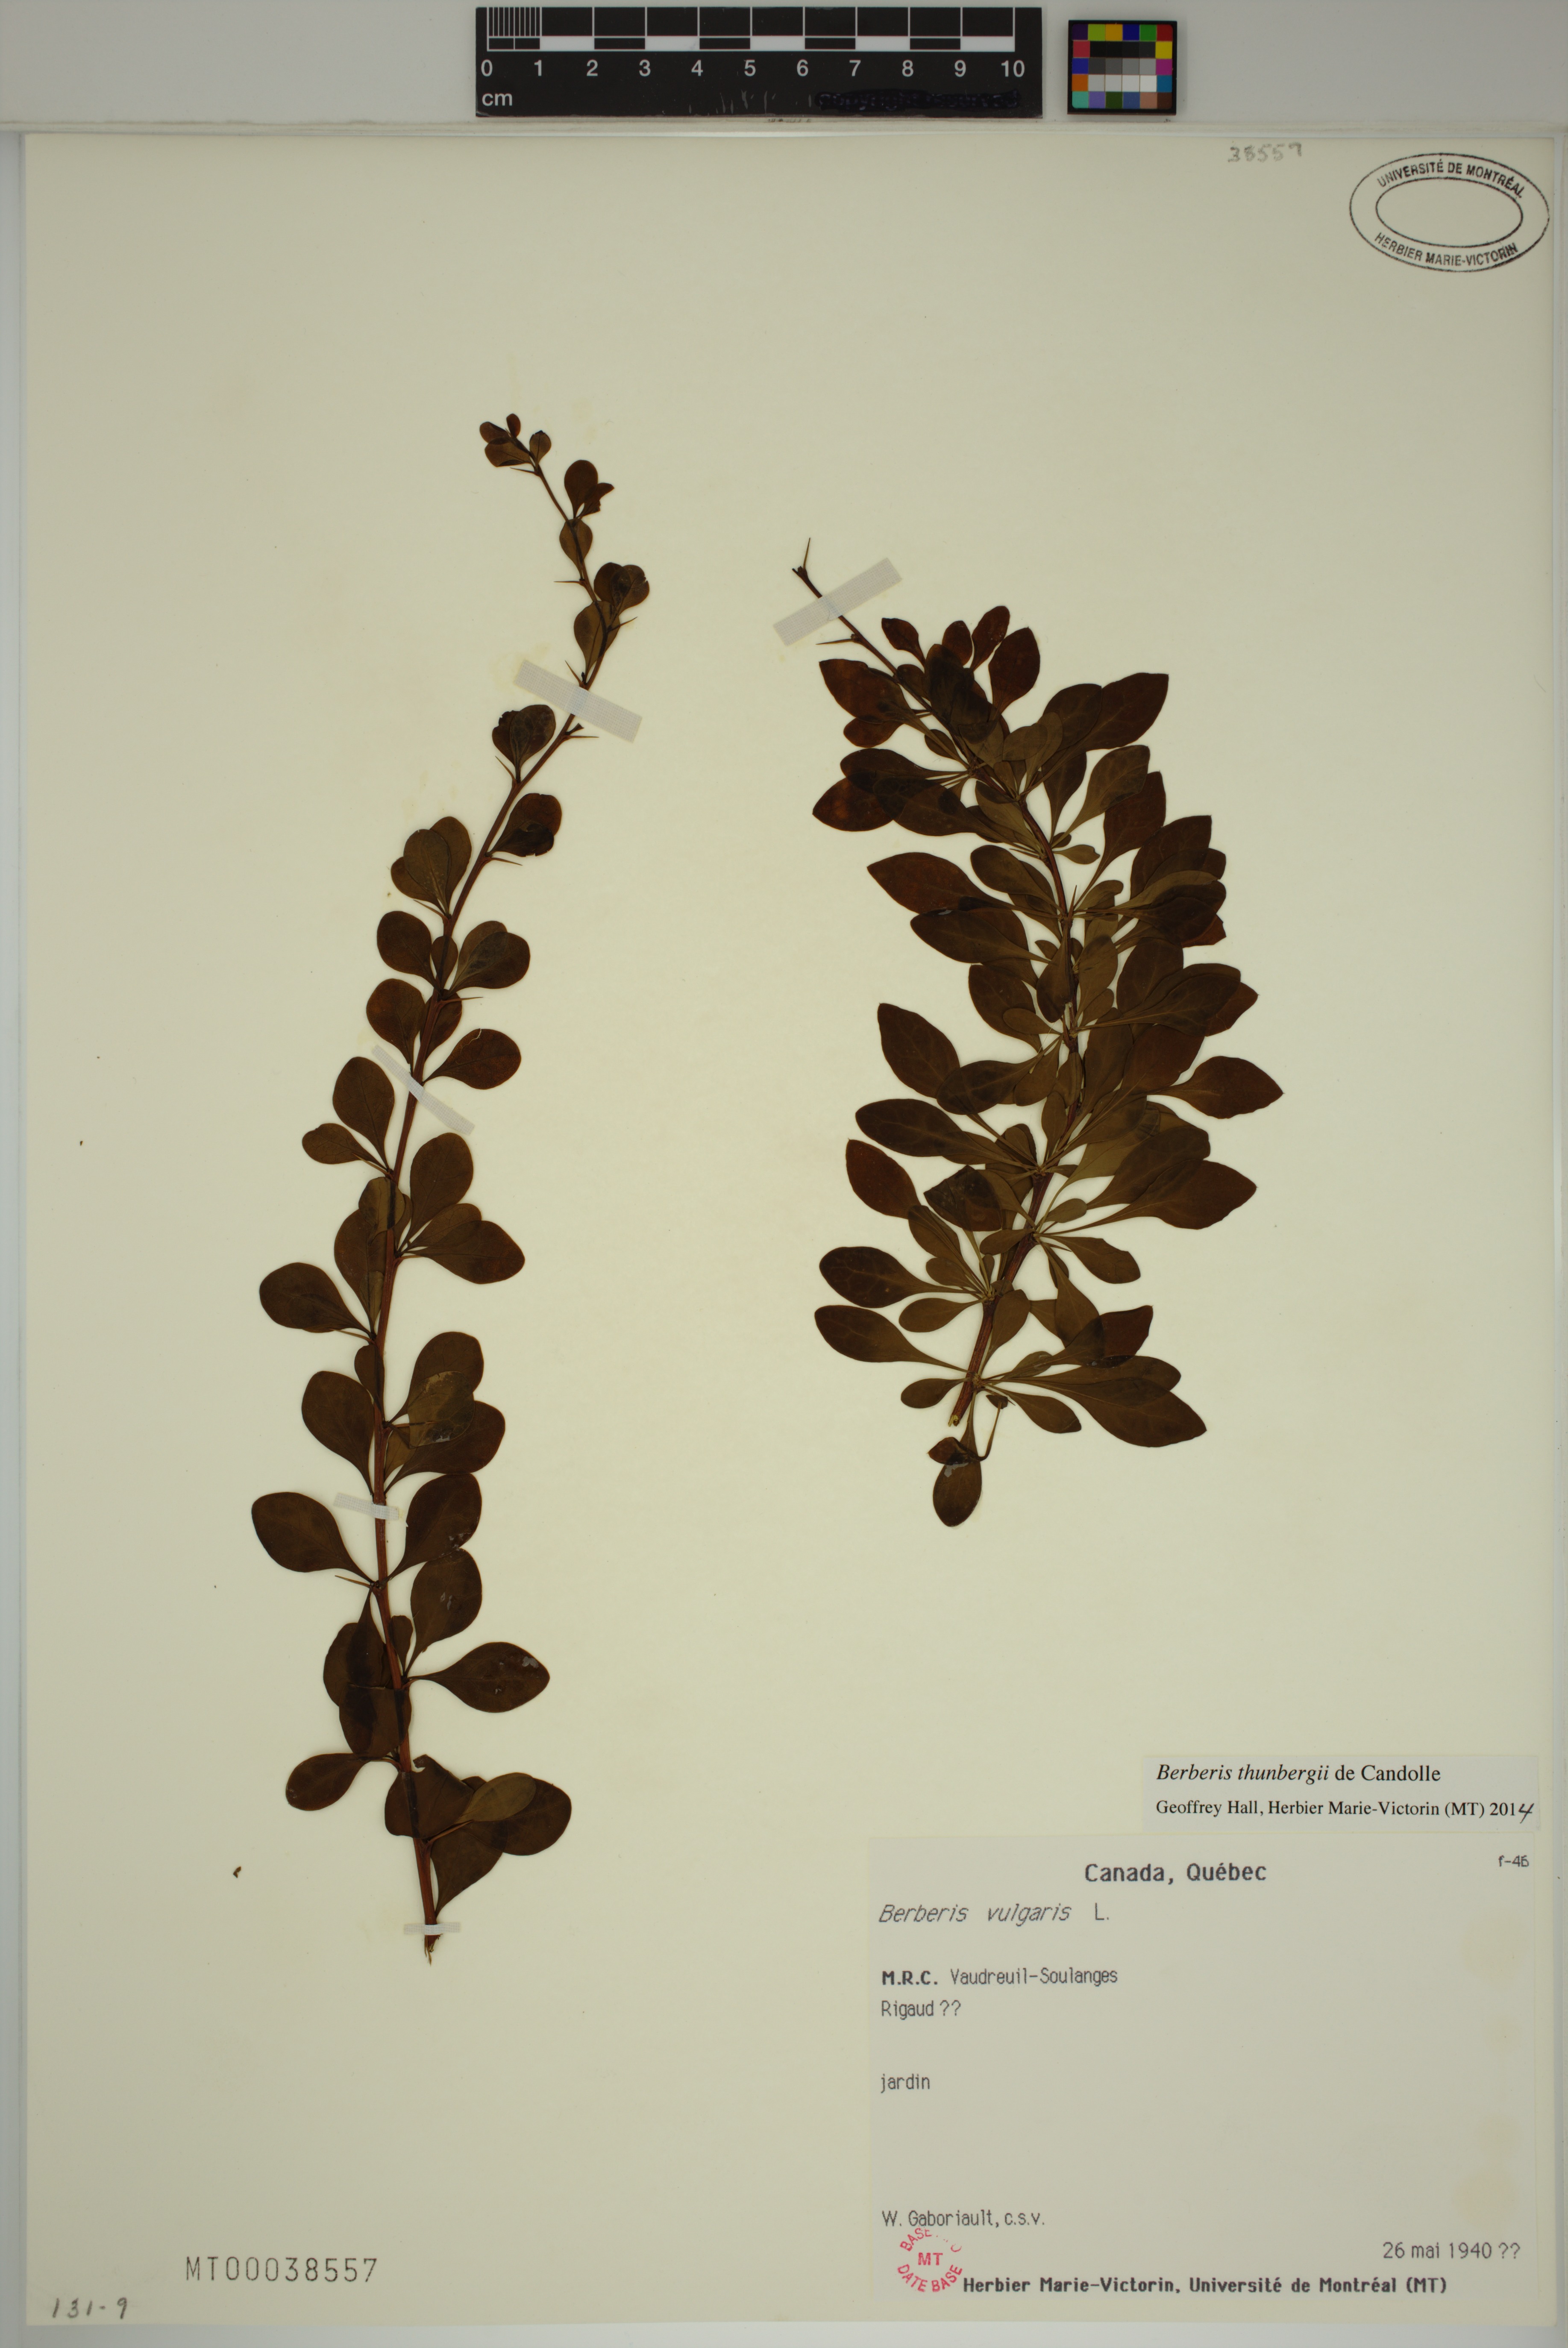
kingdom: Plantae
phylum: Tracheophyta
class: Magnoliopsida
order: Ranunculales
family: Berberidaceae
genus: Berberis
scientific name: Berberis thunbergii
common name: Japanese barberry
